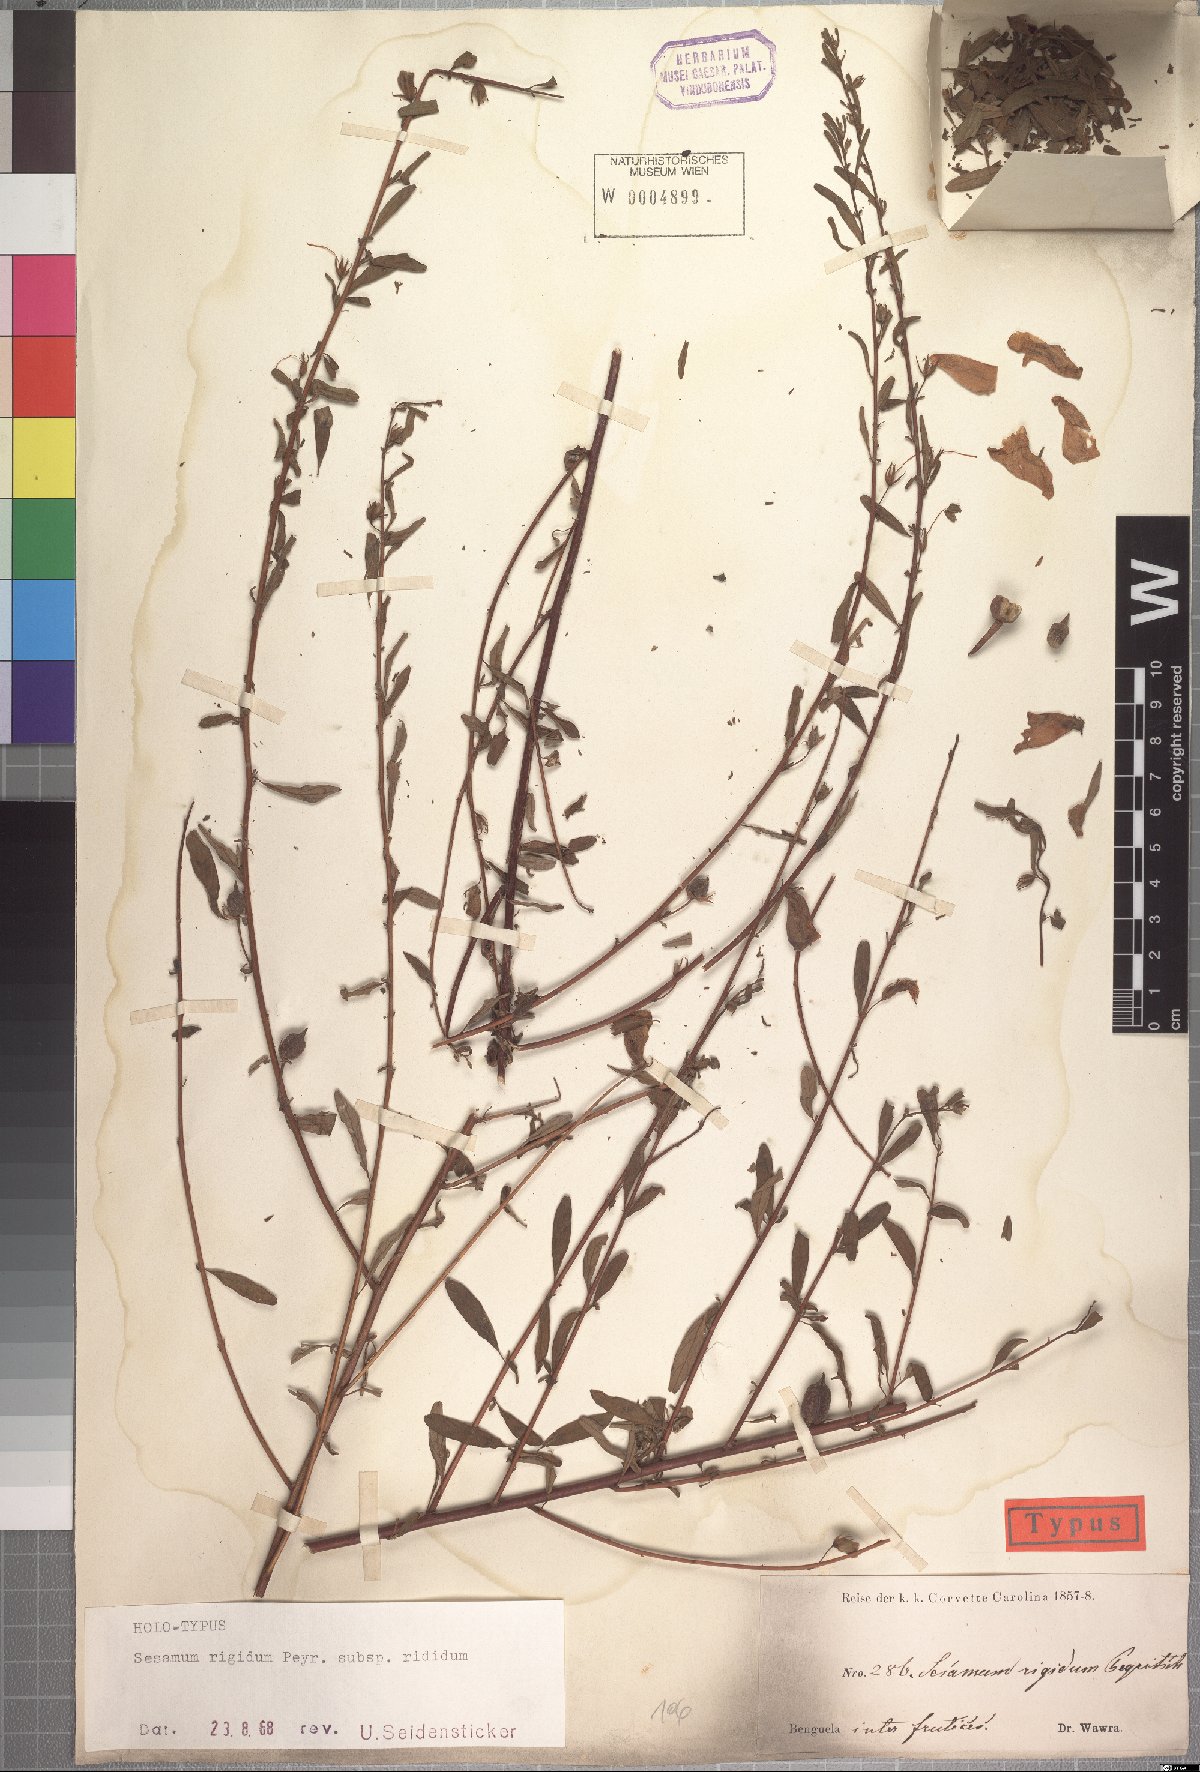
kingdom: Plantae
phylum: Tracheophyta
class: Magnoliopsida
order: Lamiales
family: Pedaliaceae
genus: Sesamum
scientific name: Sesamum rigidum
